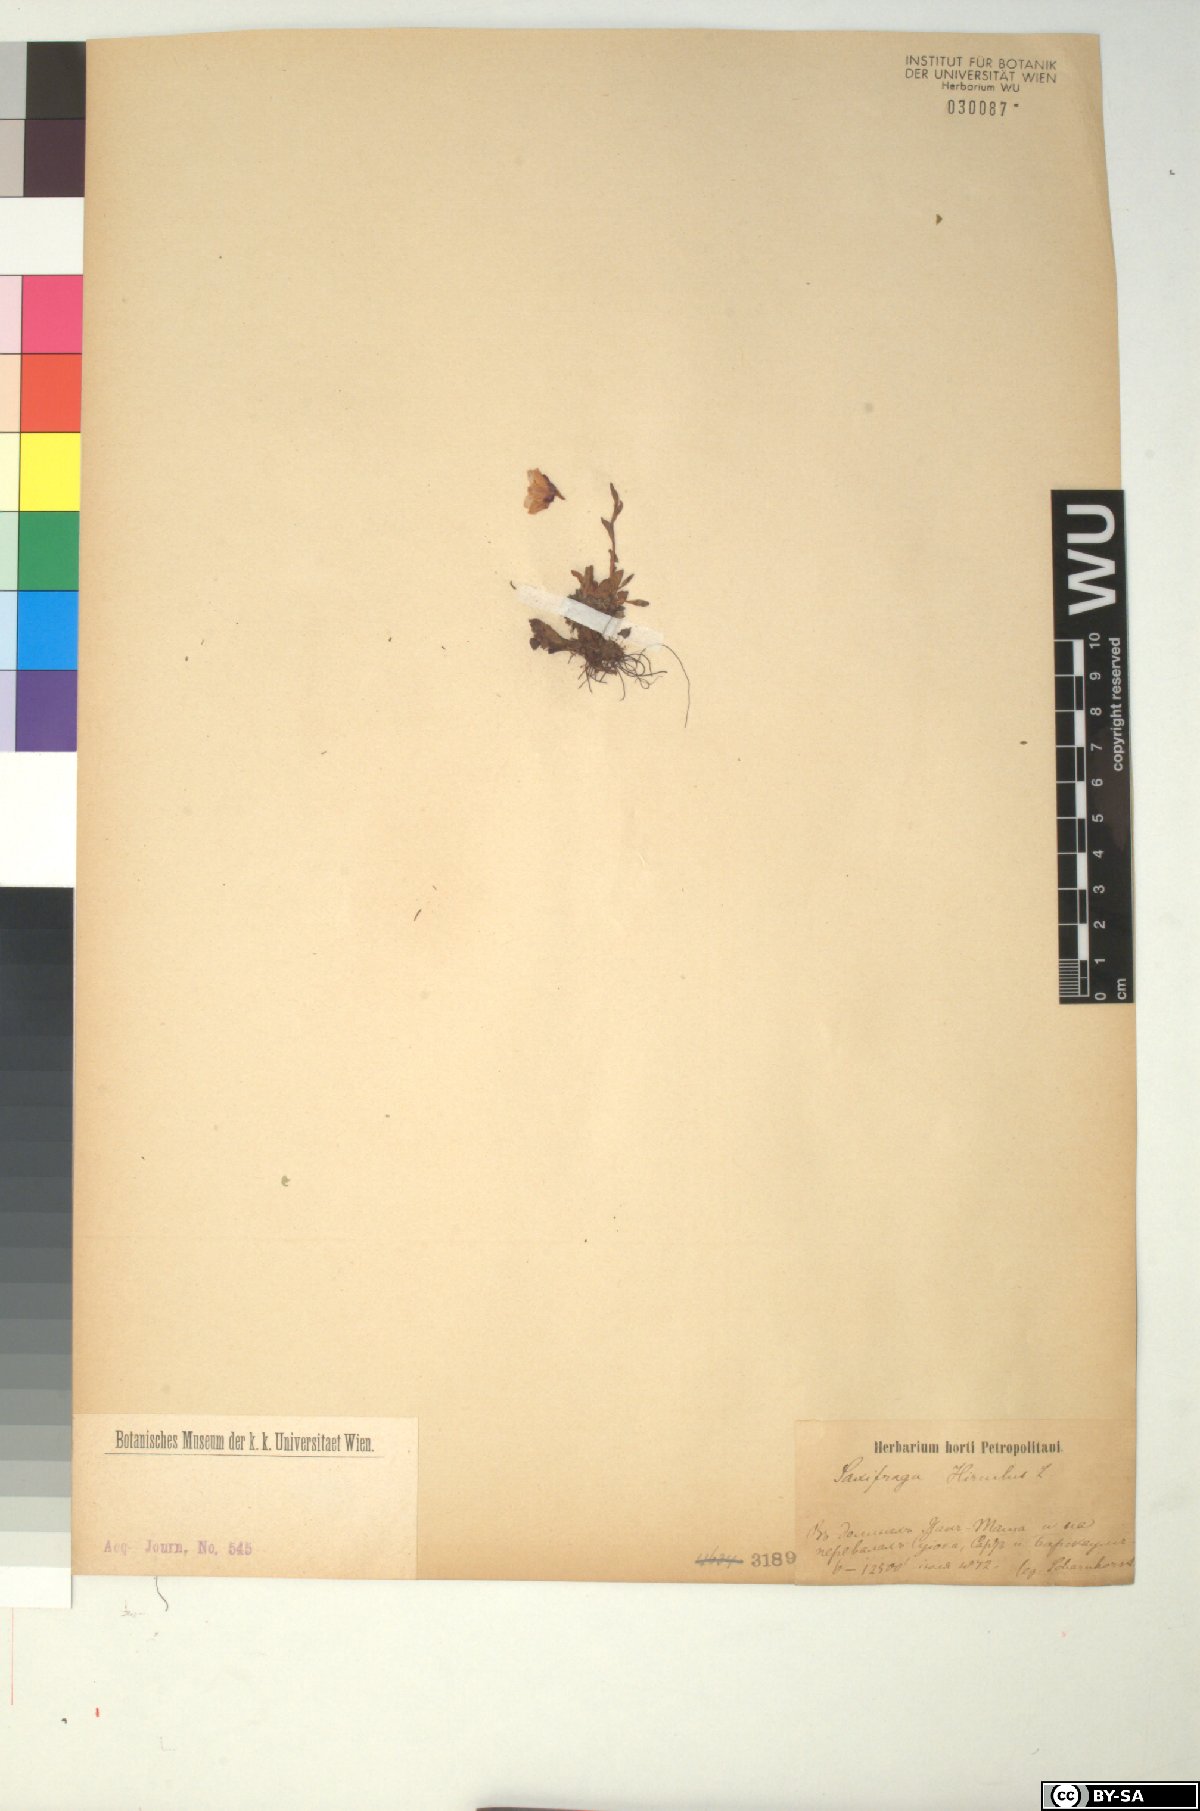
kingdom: Plantae
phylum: Tracheophyta
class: Magnoliopsida
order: Saxifragales
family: Saxifragaceae
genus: Saxifraga
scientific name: Saxifraga hirculus
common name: Yellow marsh saxifrage
